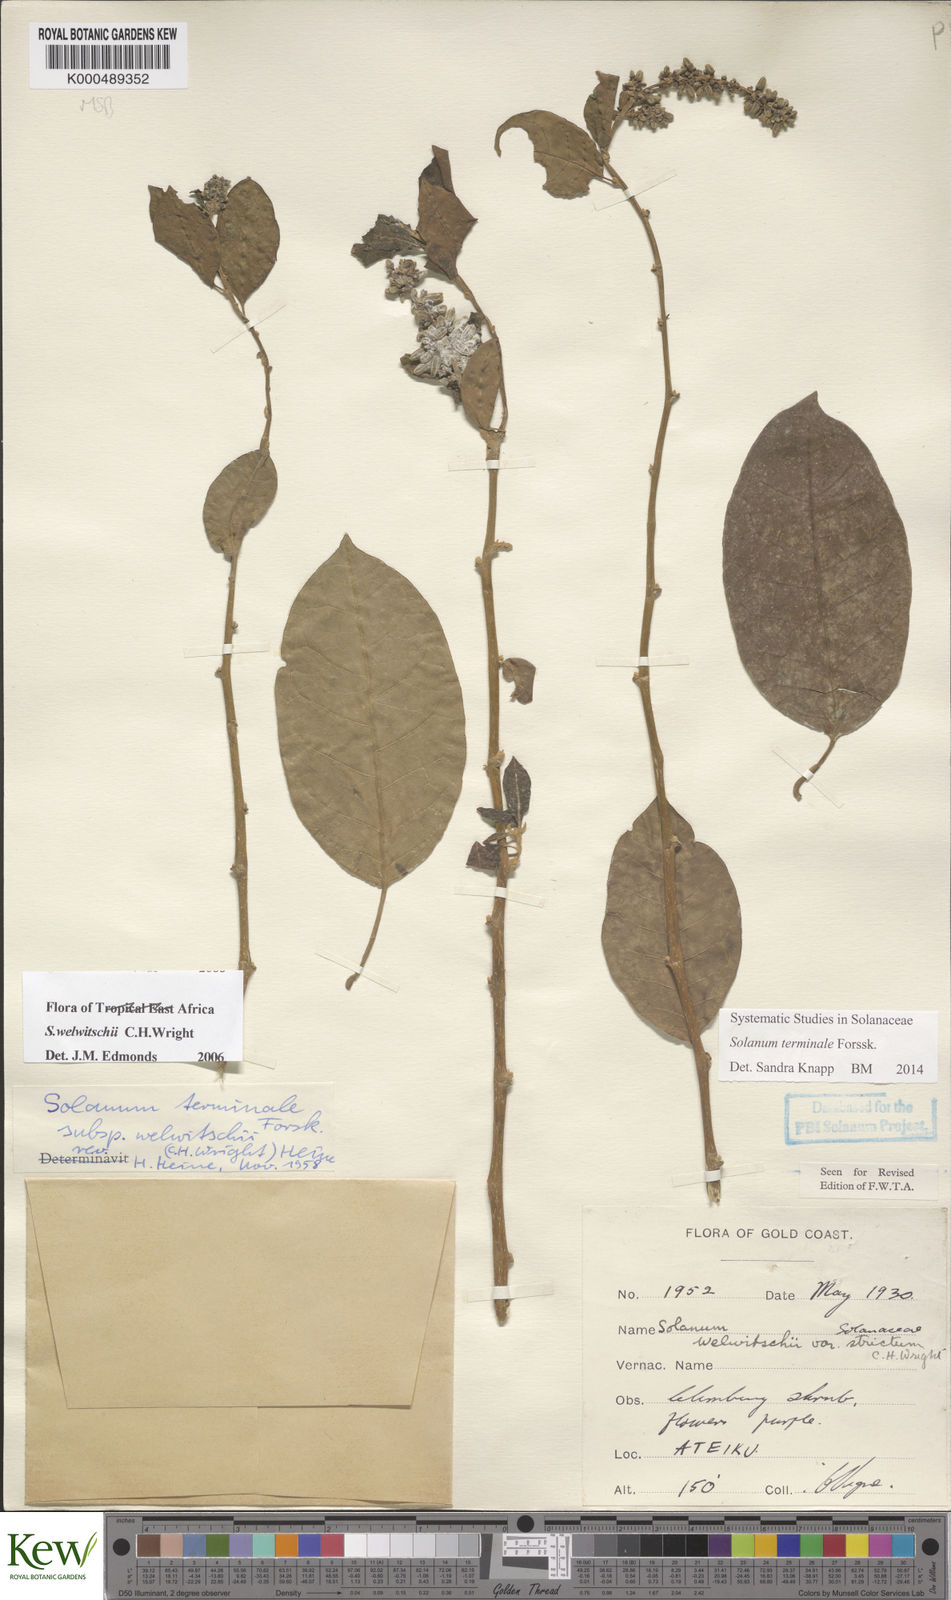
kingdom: Plantae
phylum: Tracheophyta
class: Magnoliopsida
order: Solanales
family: Solanaceae
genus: Solanum
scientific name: Solanum terminale
